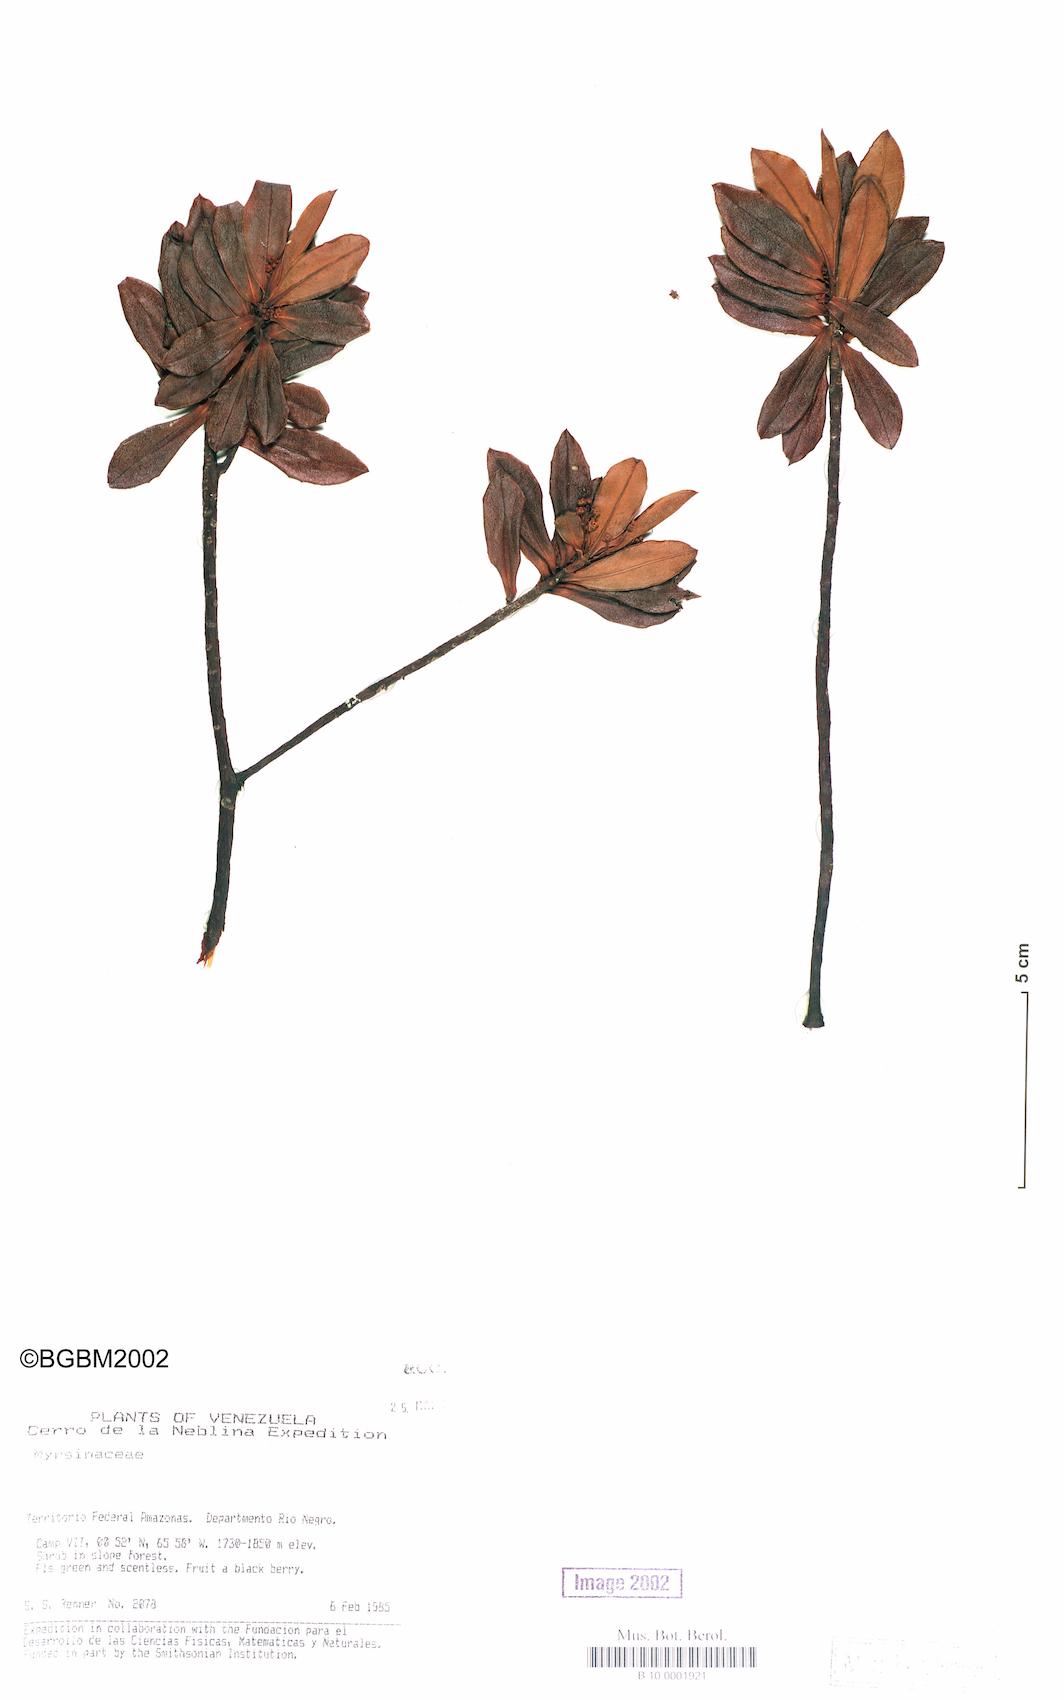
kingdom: Plantae
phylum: Tracheophyta
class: Magnoliopsida
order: Ericales
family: Primulaceae
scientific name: Primulaceae
